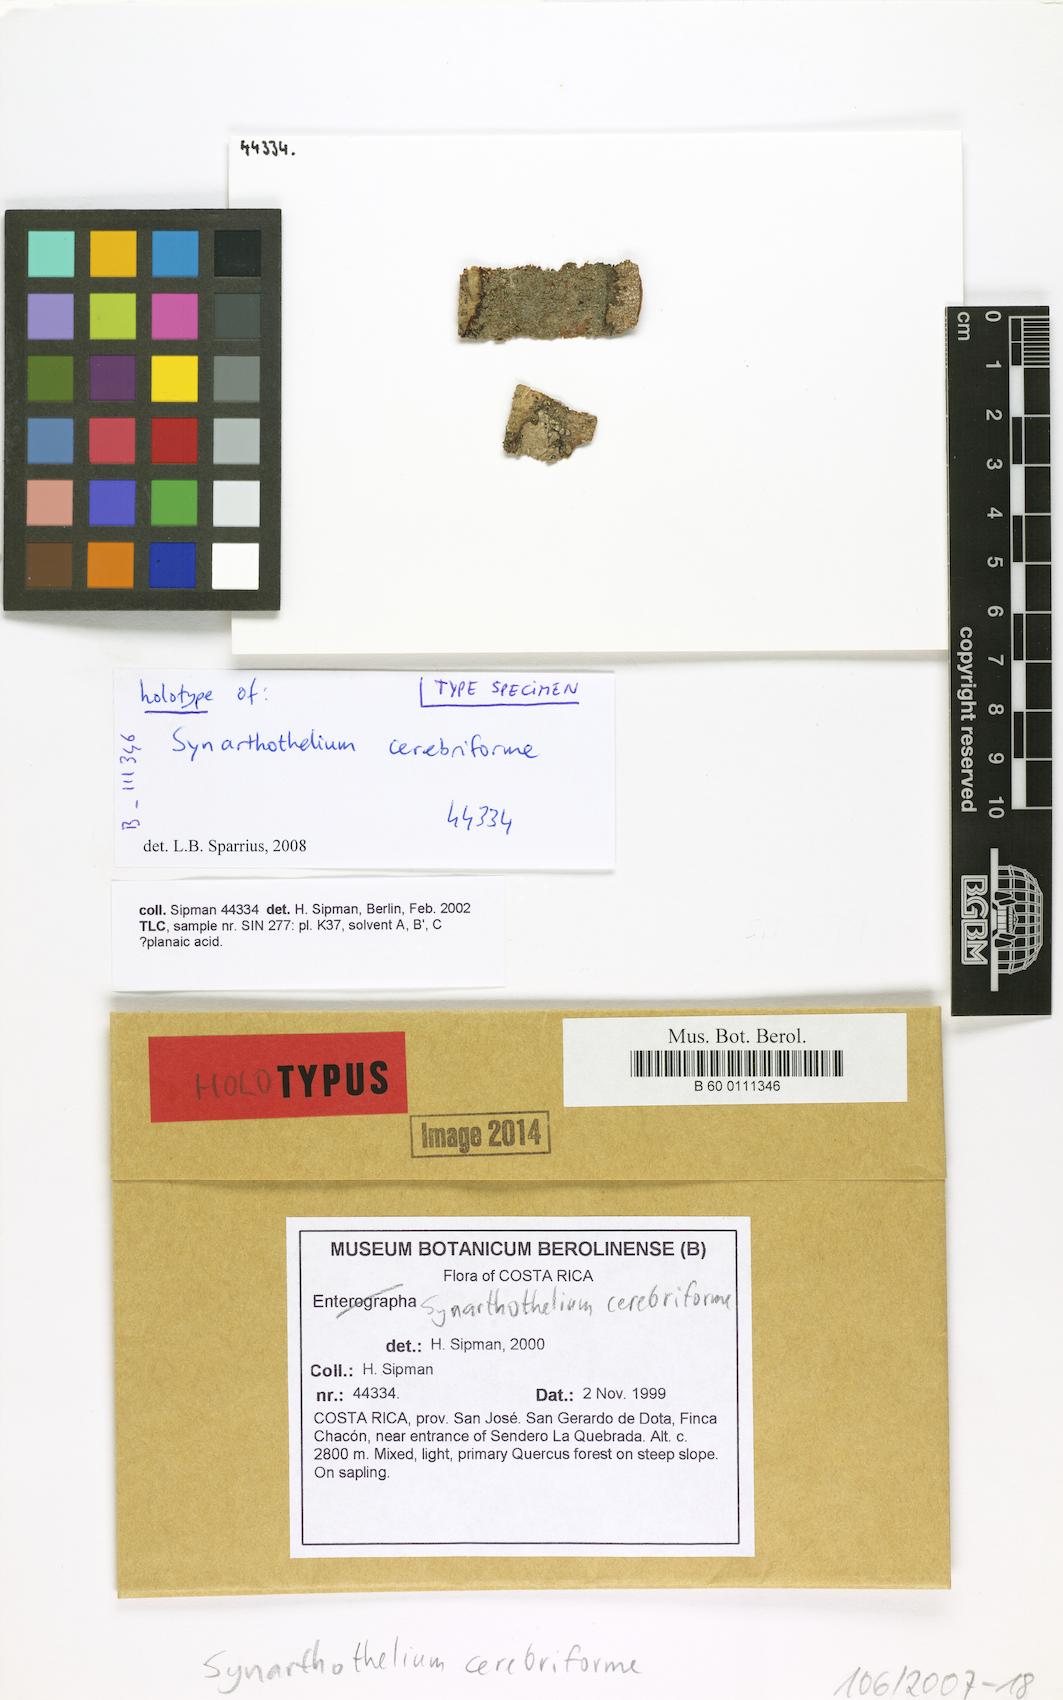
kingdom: Fungi
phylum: Ascomycota
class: Arthoniomycetes
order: Arthoniales
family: Arthoniaceae
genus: Synarthothelium
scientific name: Synarthothelium cerebriforme
